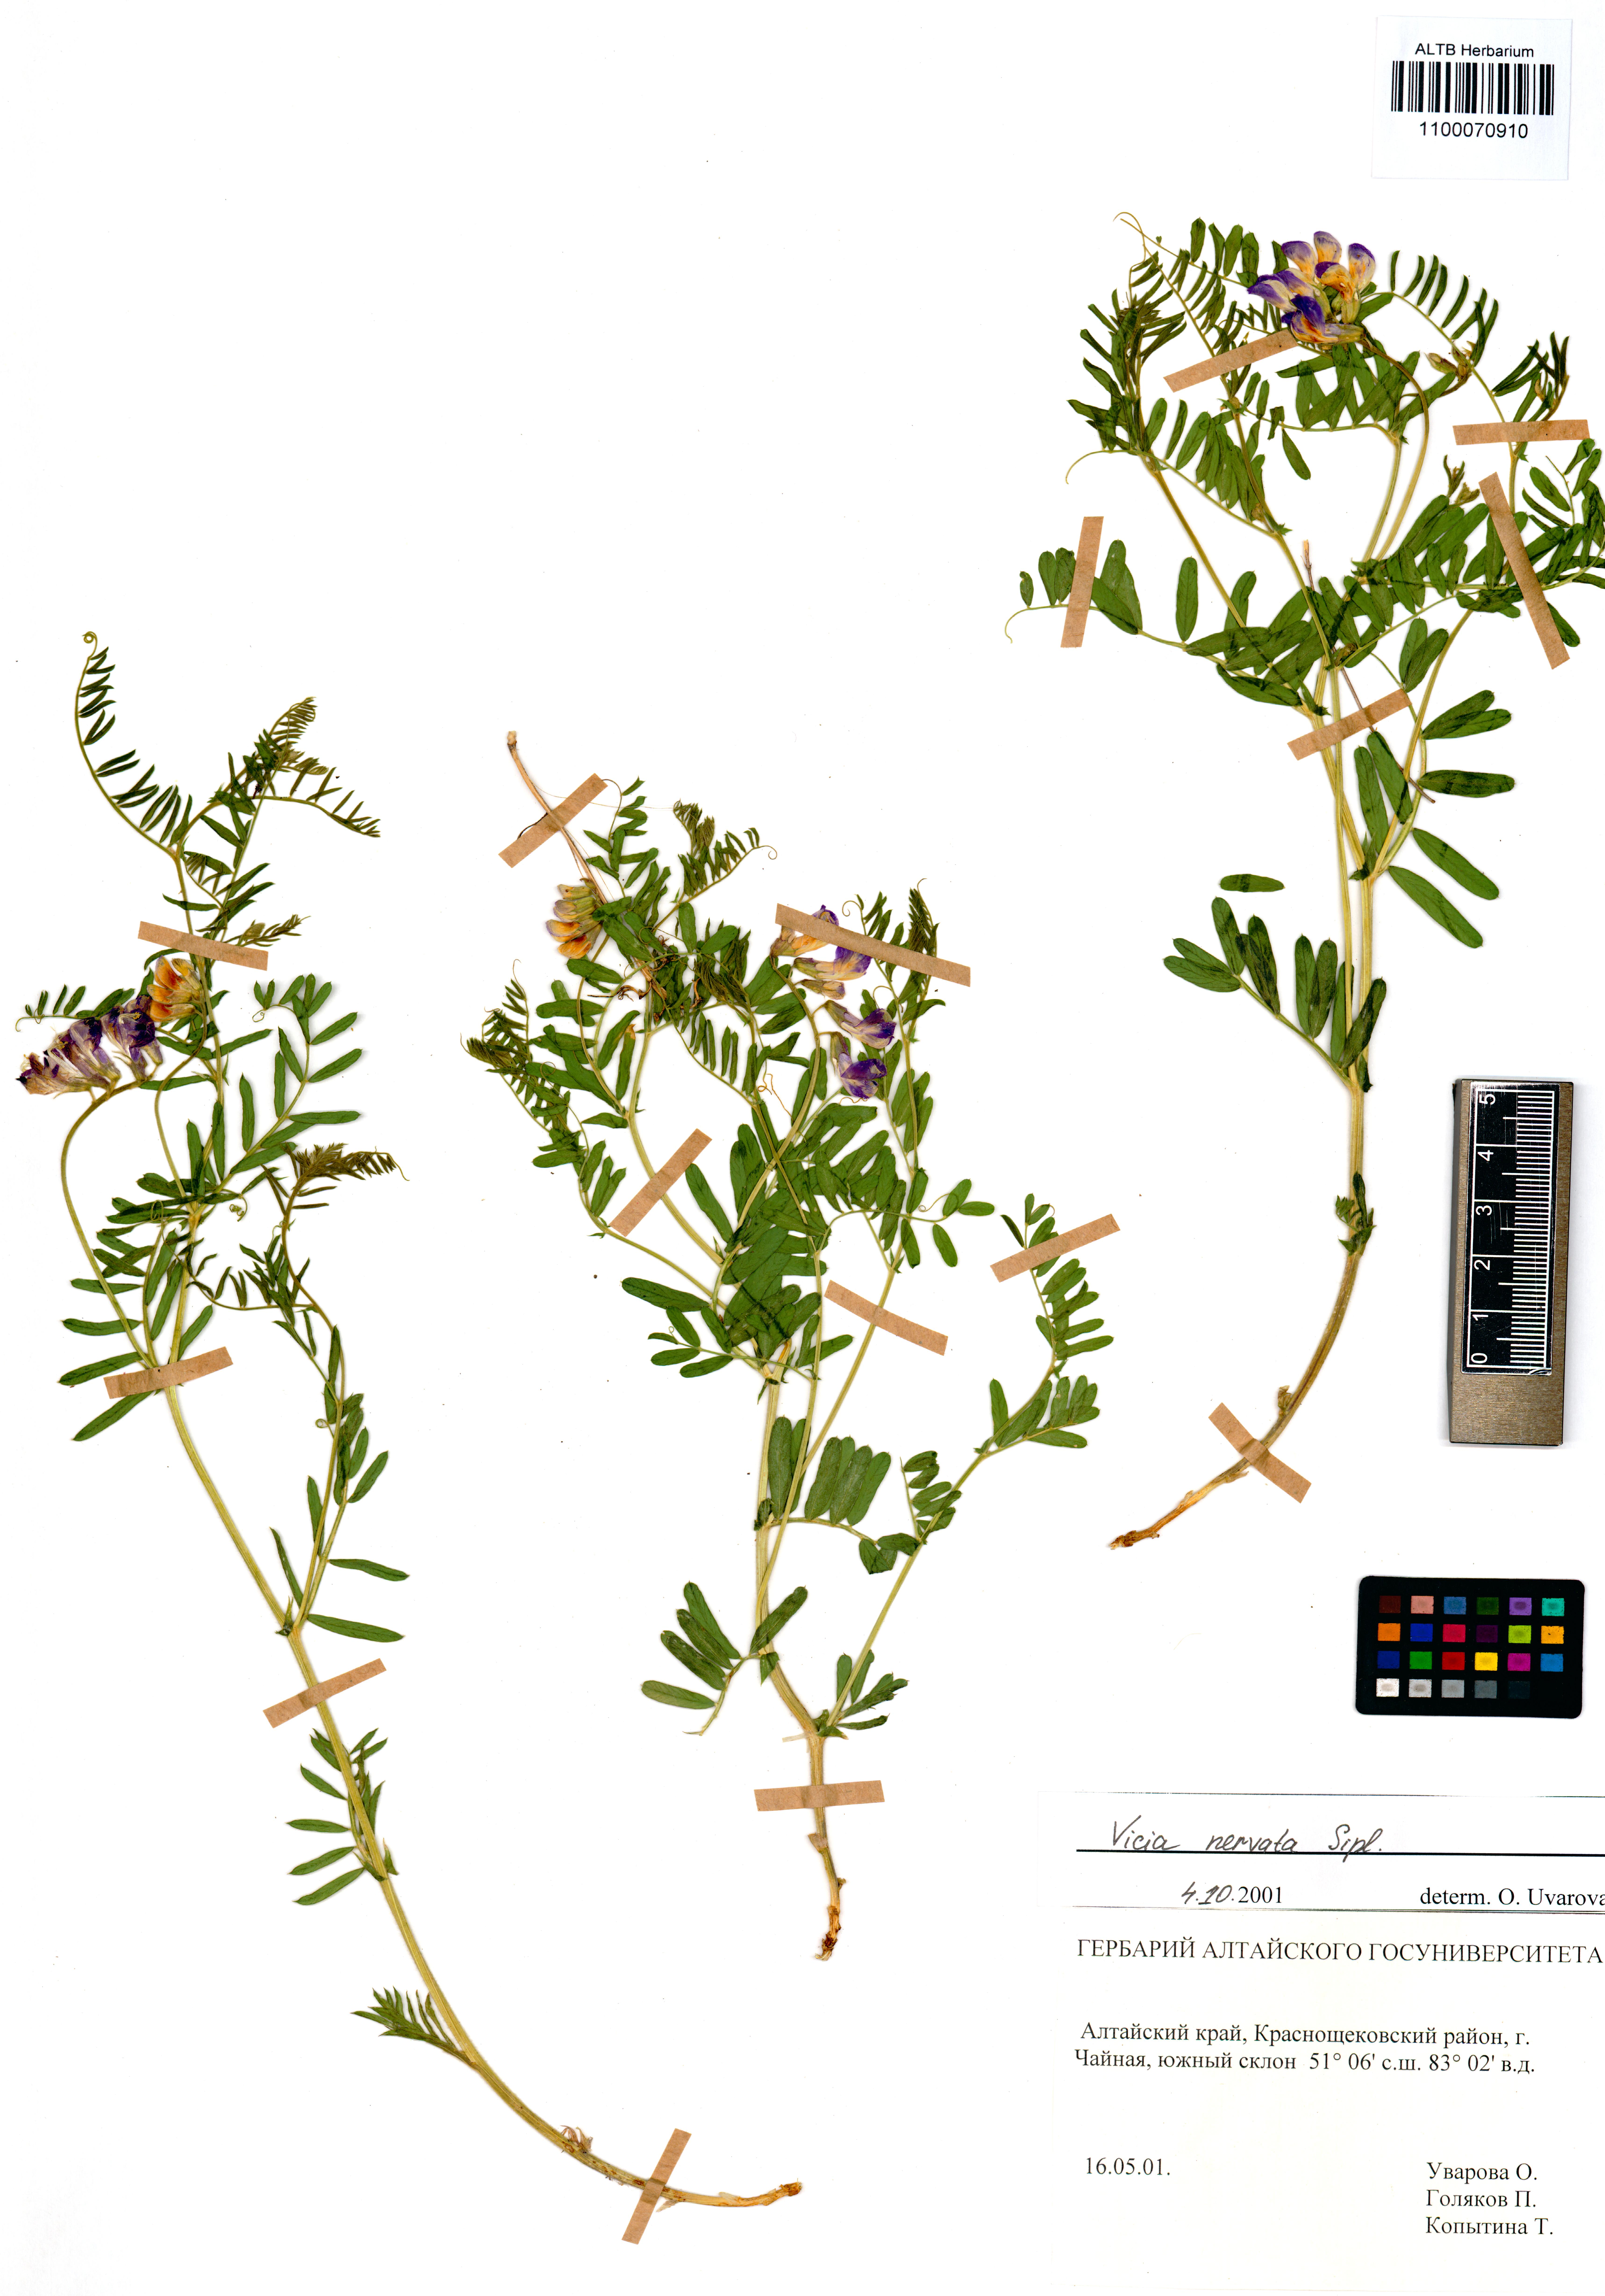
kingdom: Plantae
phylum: Tracheophyta
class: Magnoliopsida
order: Fabales
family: Fabaceae
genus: Vicia
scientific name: Vicia multicaulis
